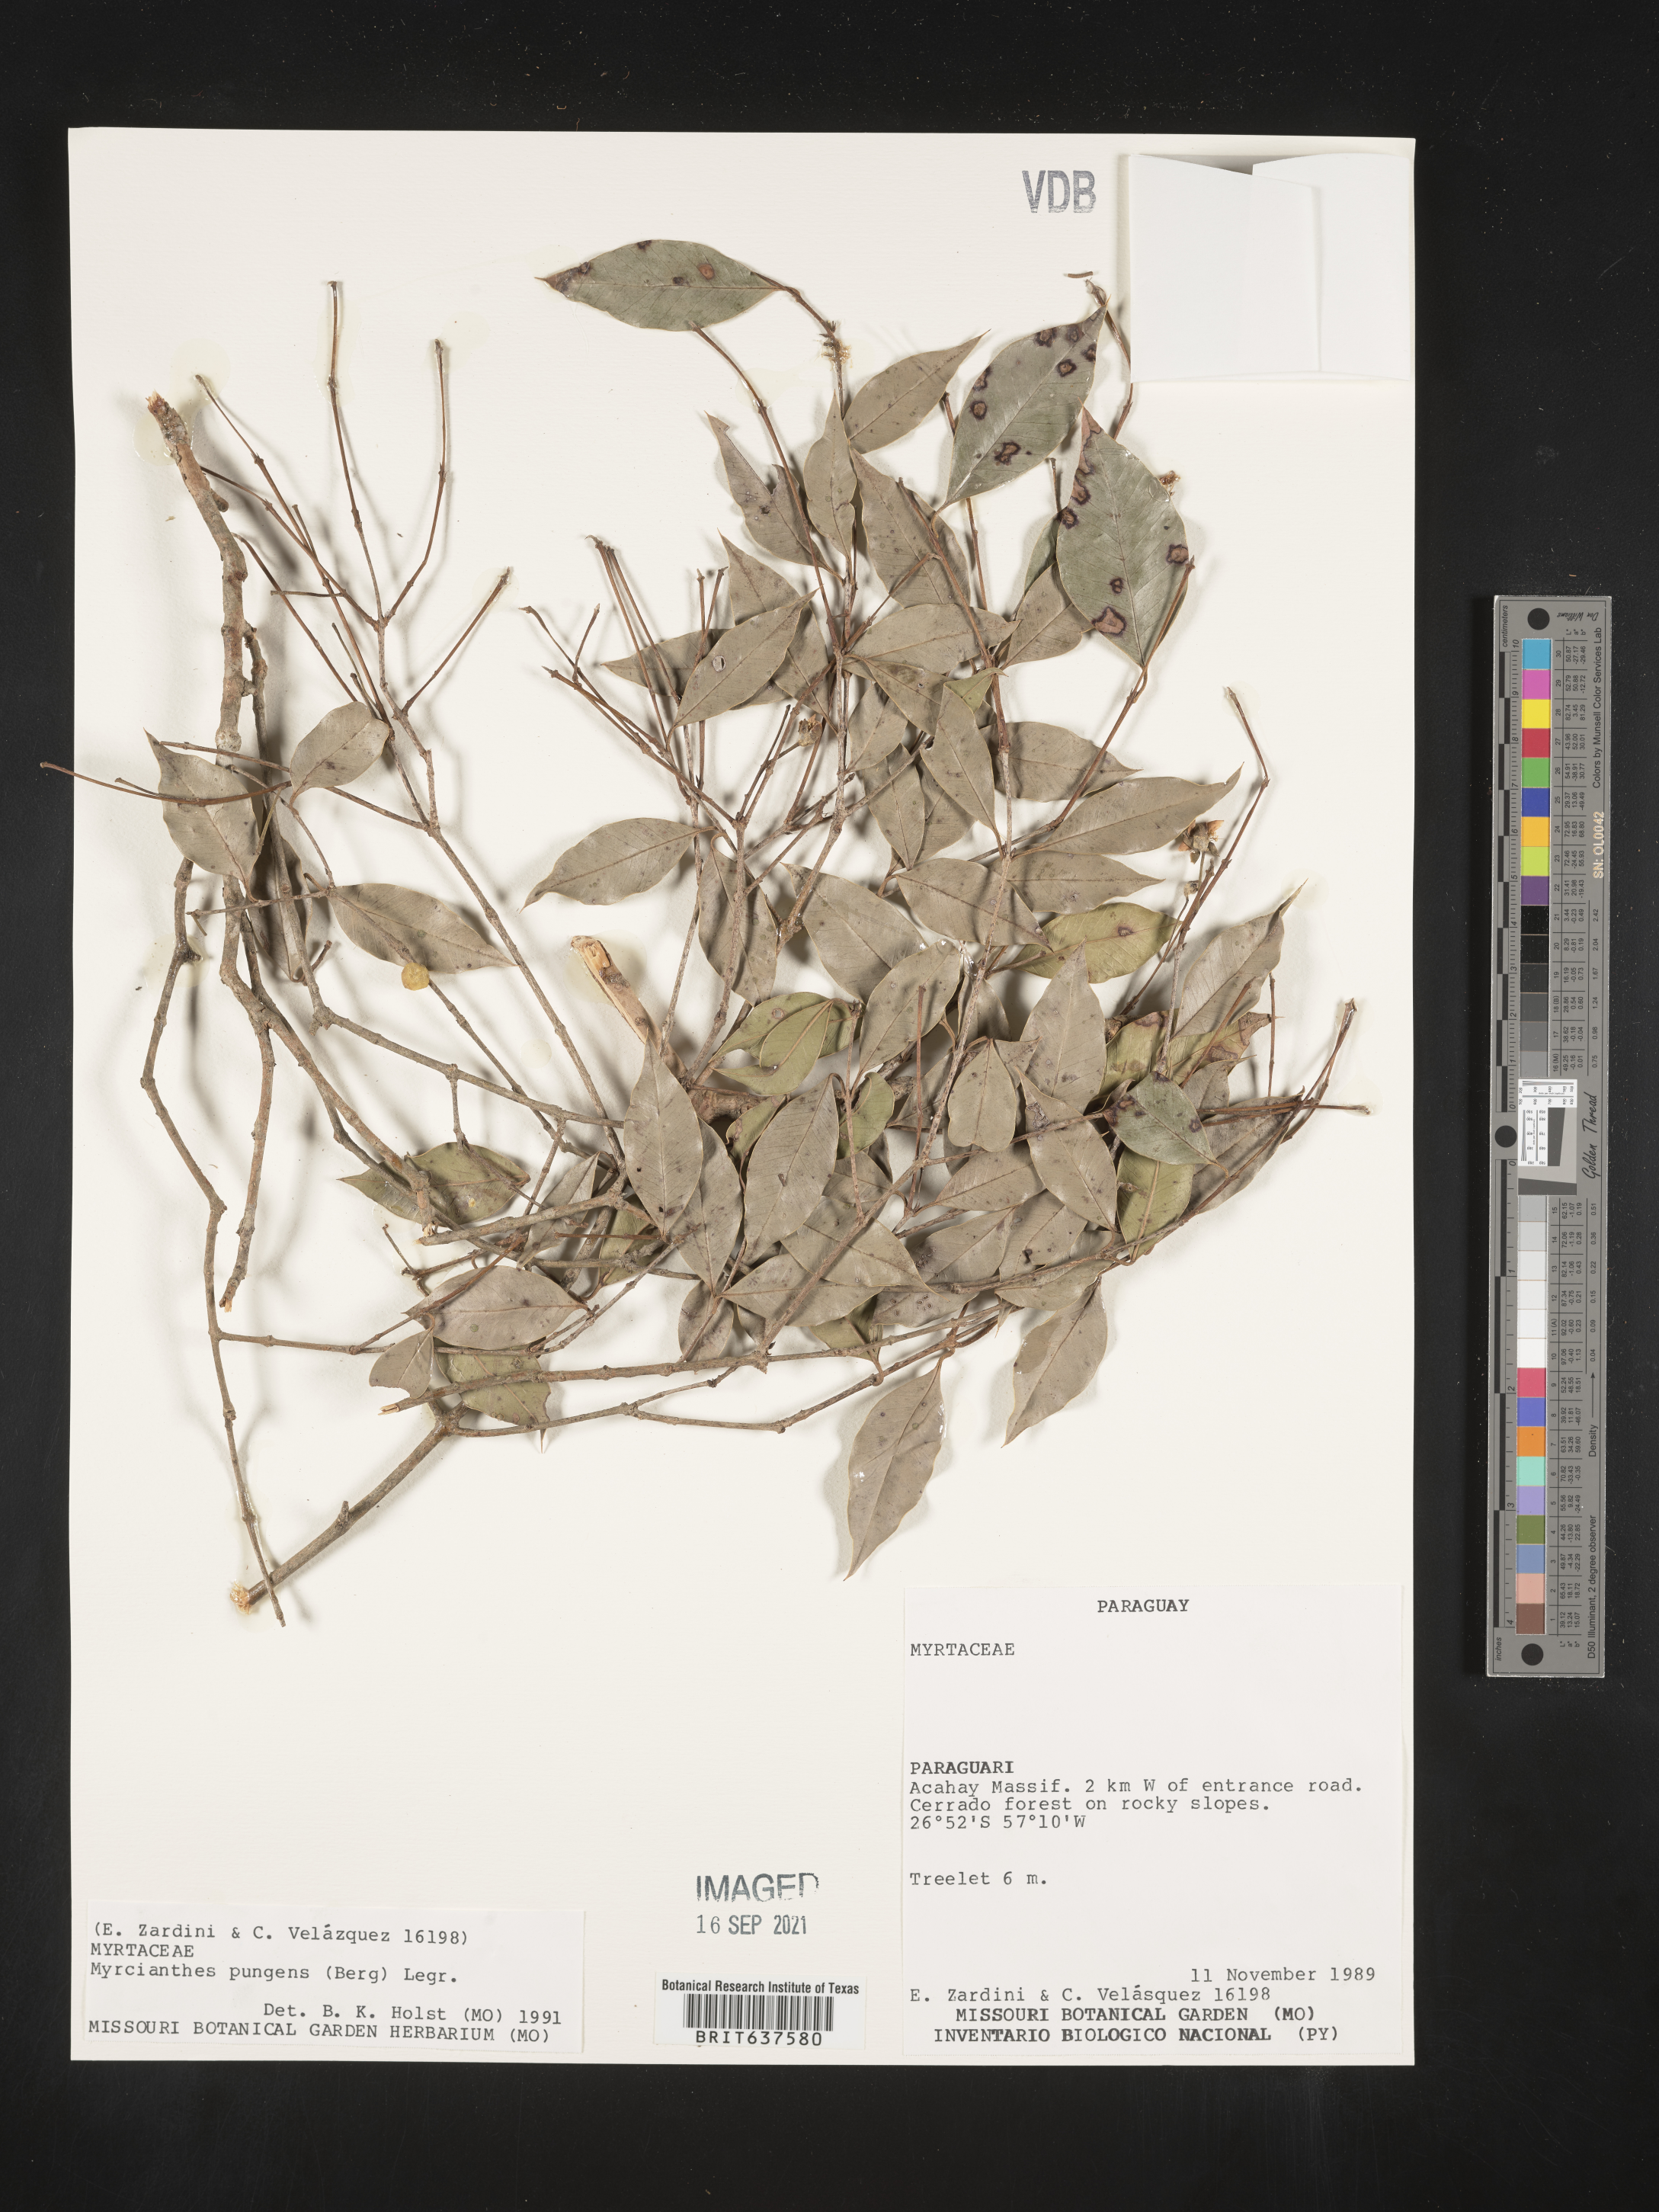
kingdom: Plantae
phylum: Tracheophyta
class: Magnoliopsida
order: Myrtales
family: Myrtaceae
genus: Myrcianthes
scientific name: Myrcianthes
